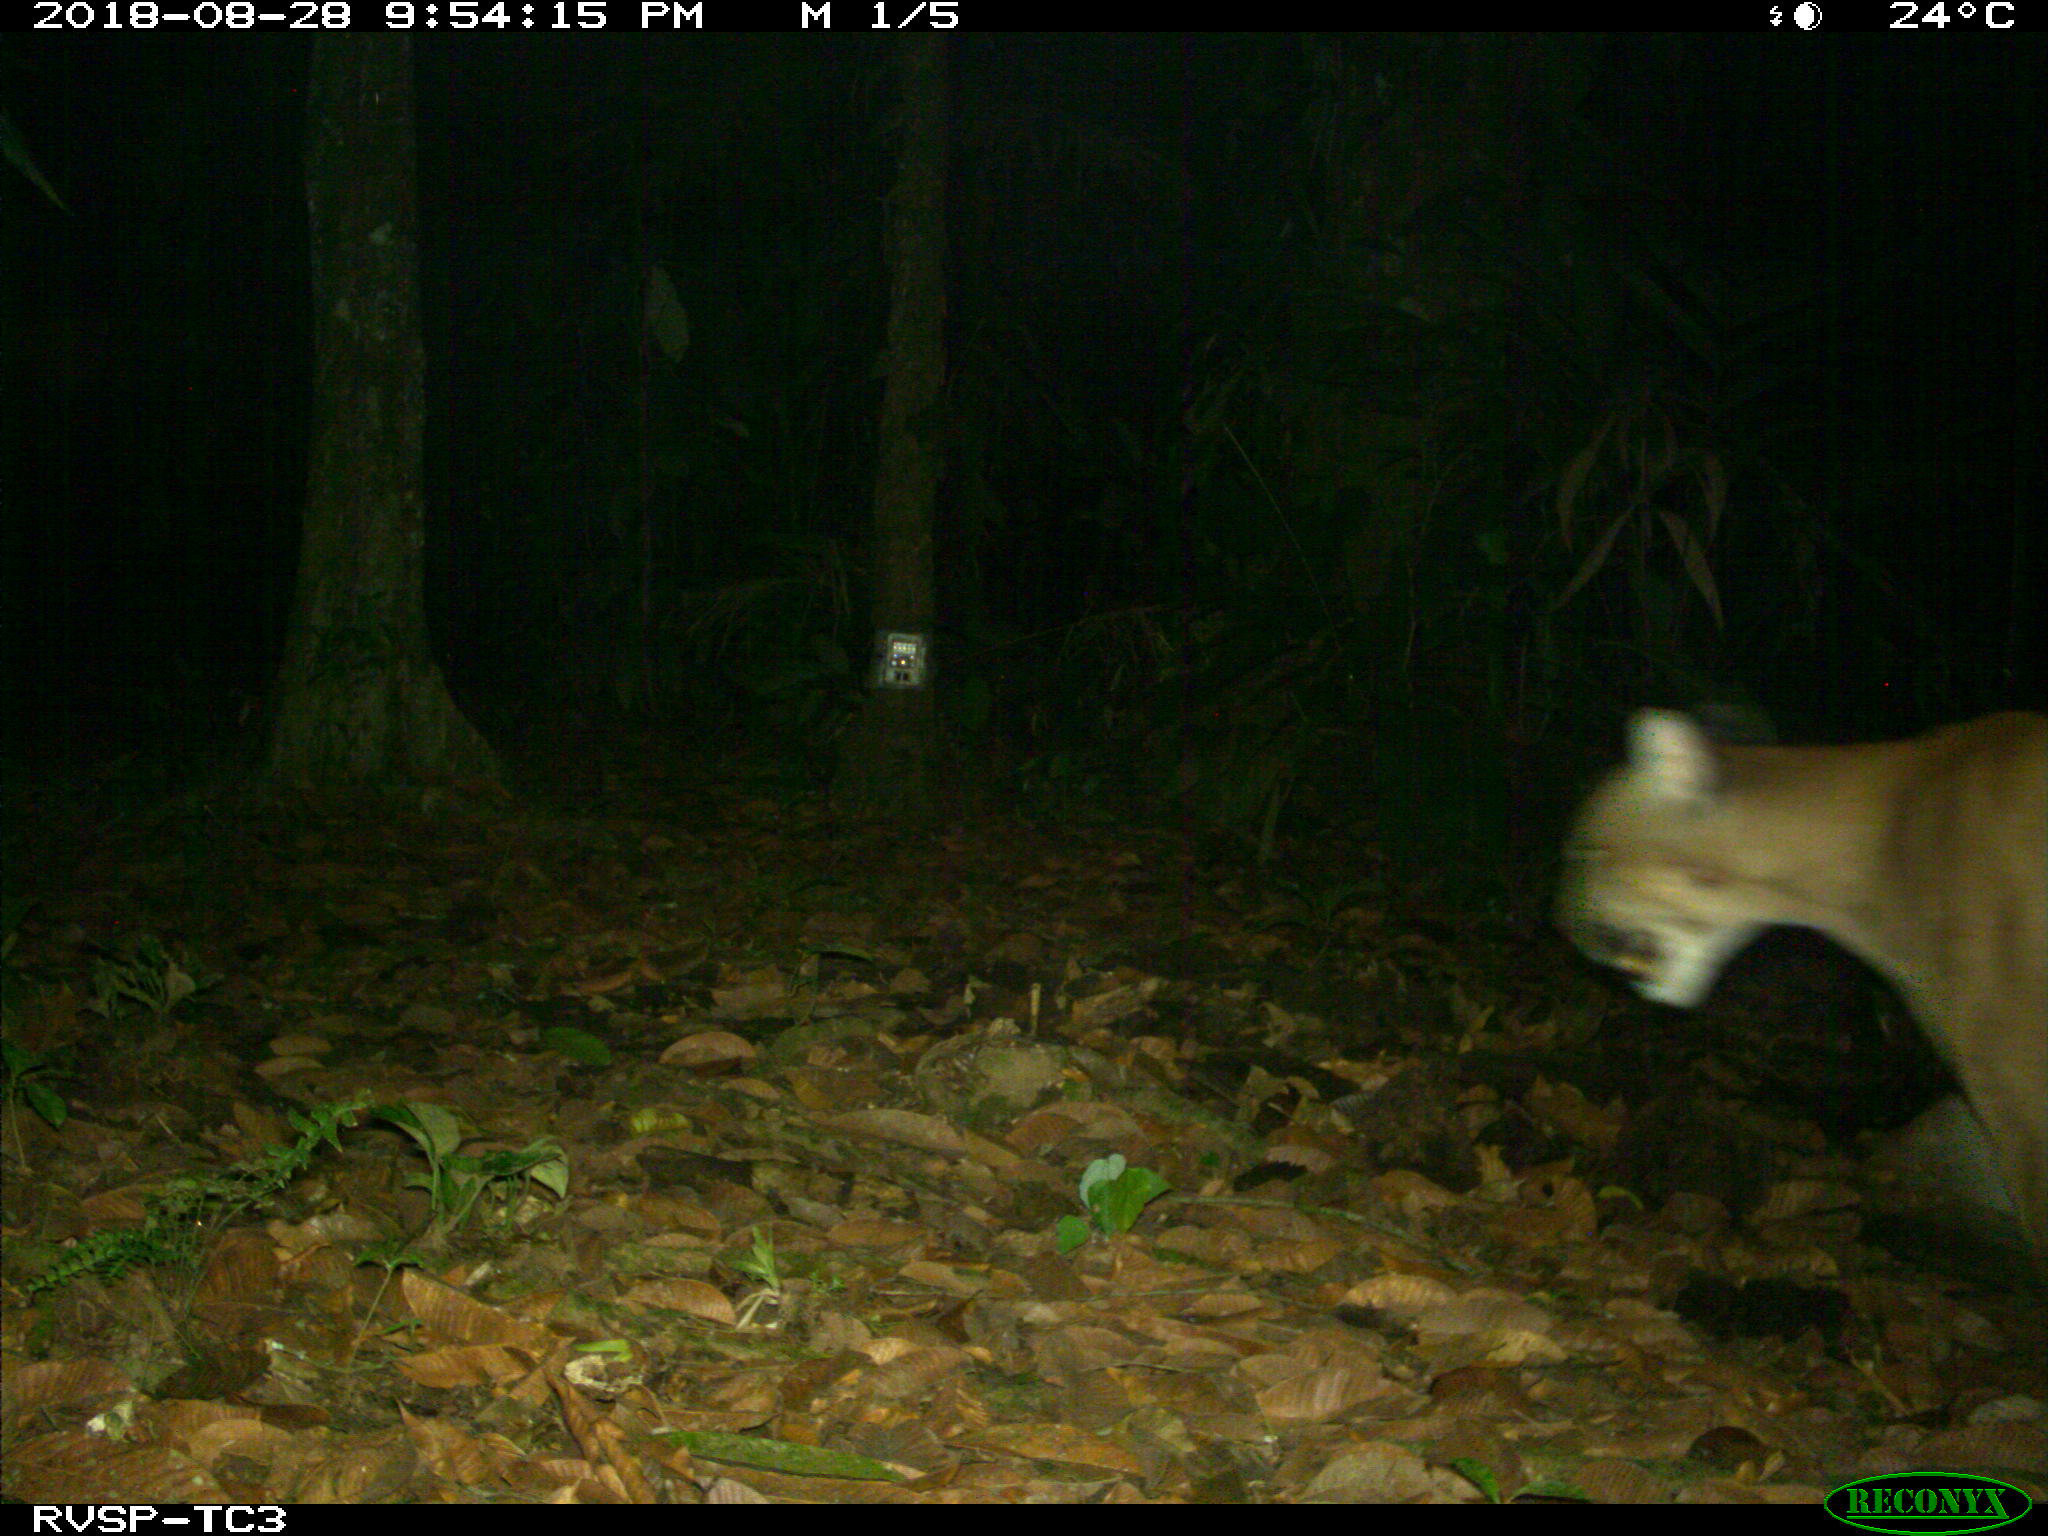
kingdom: Animalia
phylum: Chordata
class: Mammalia
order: Carnivora
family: Felidae
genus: Puma
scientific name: Puma concolor
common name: Puma
